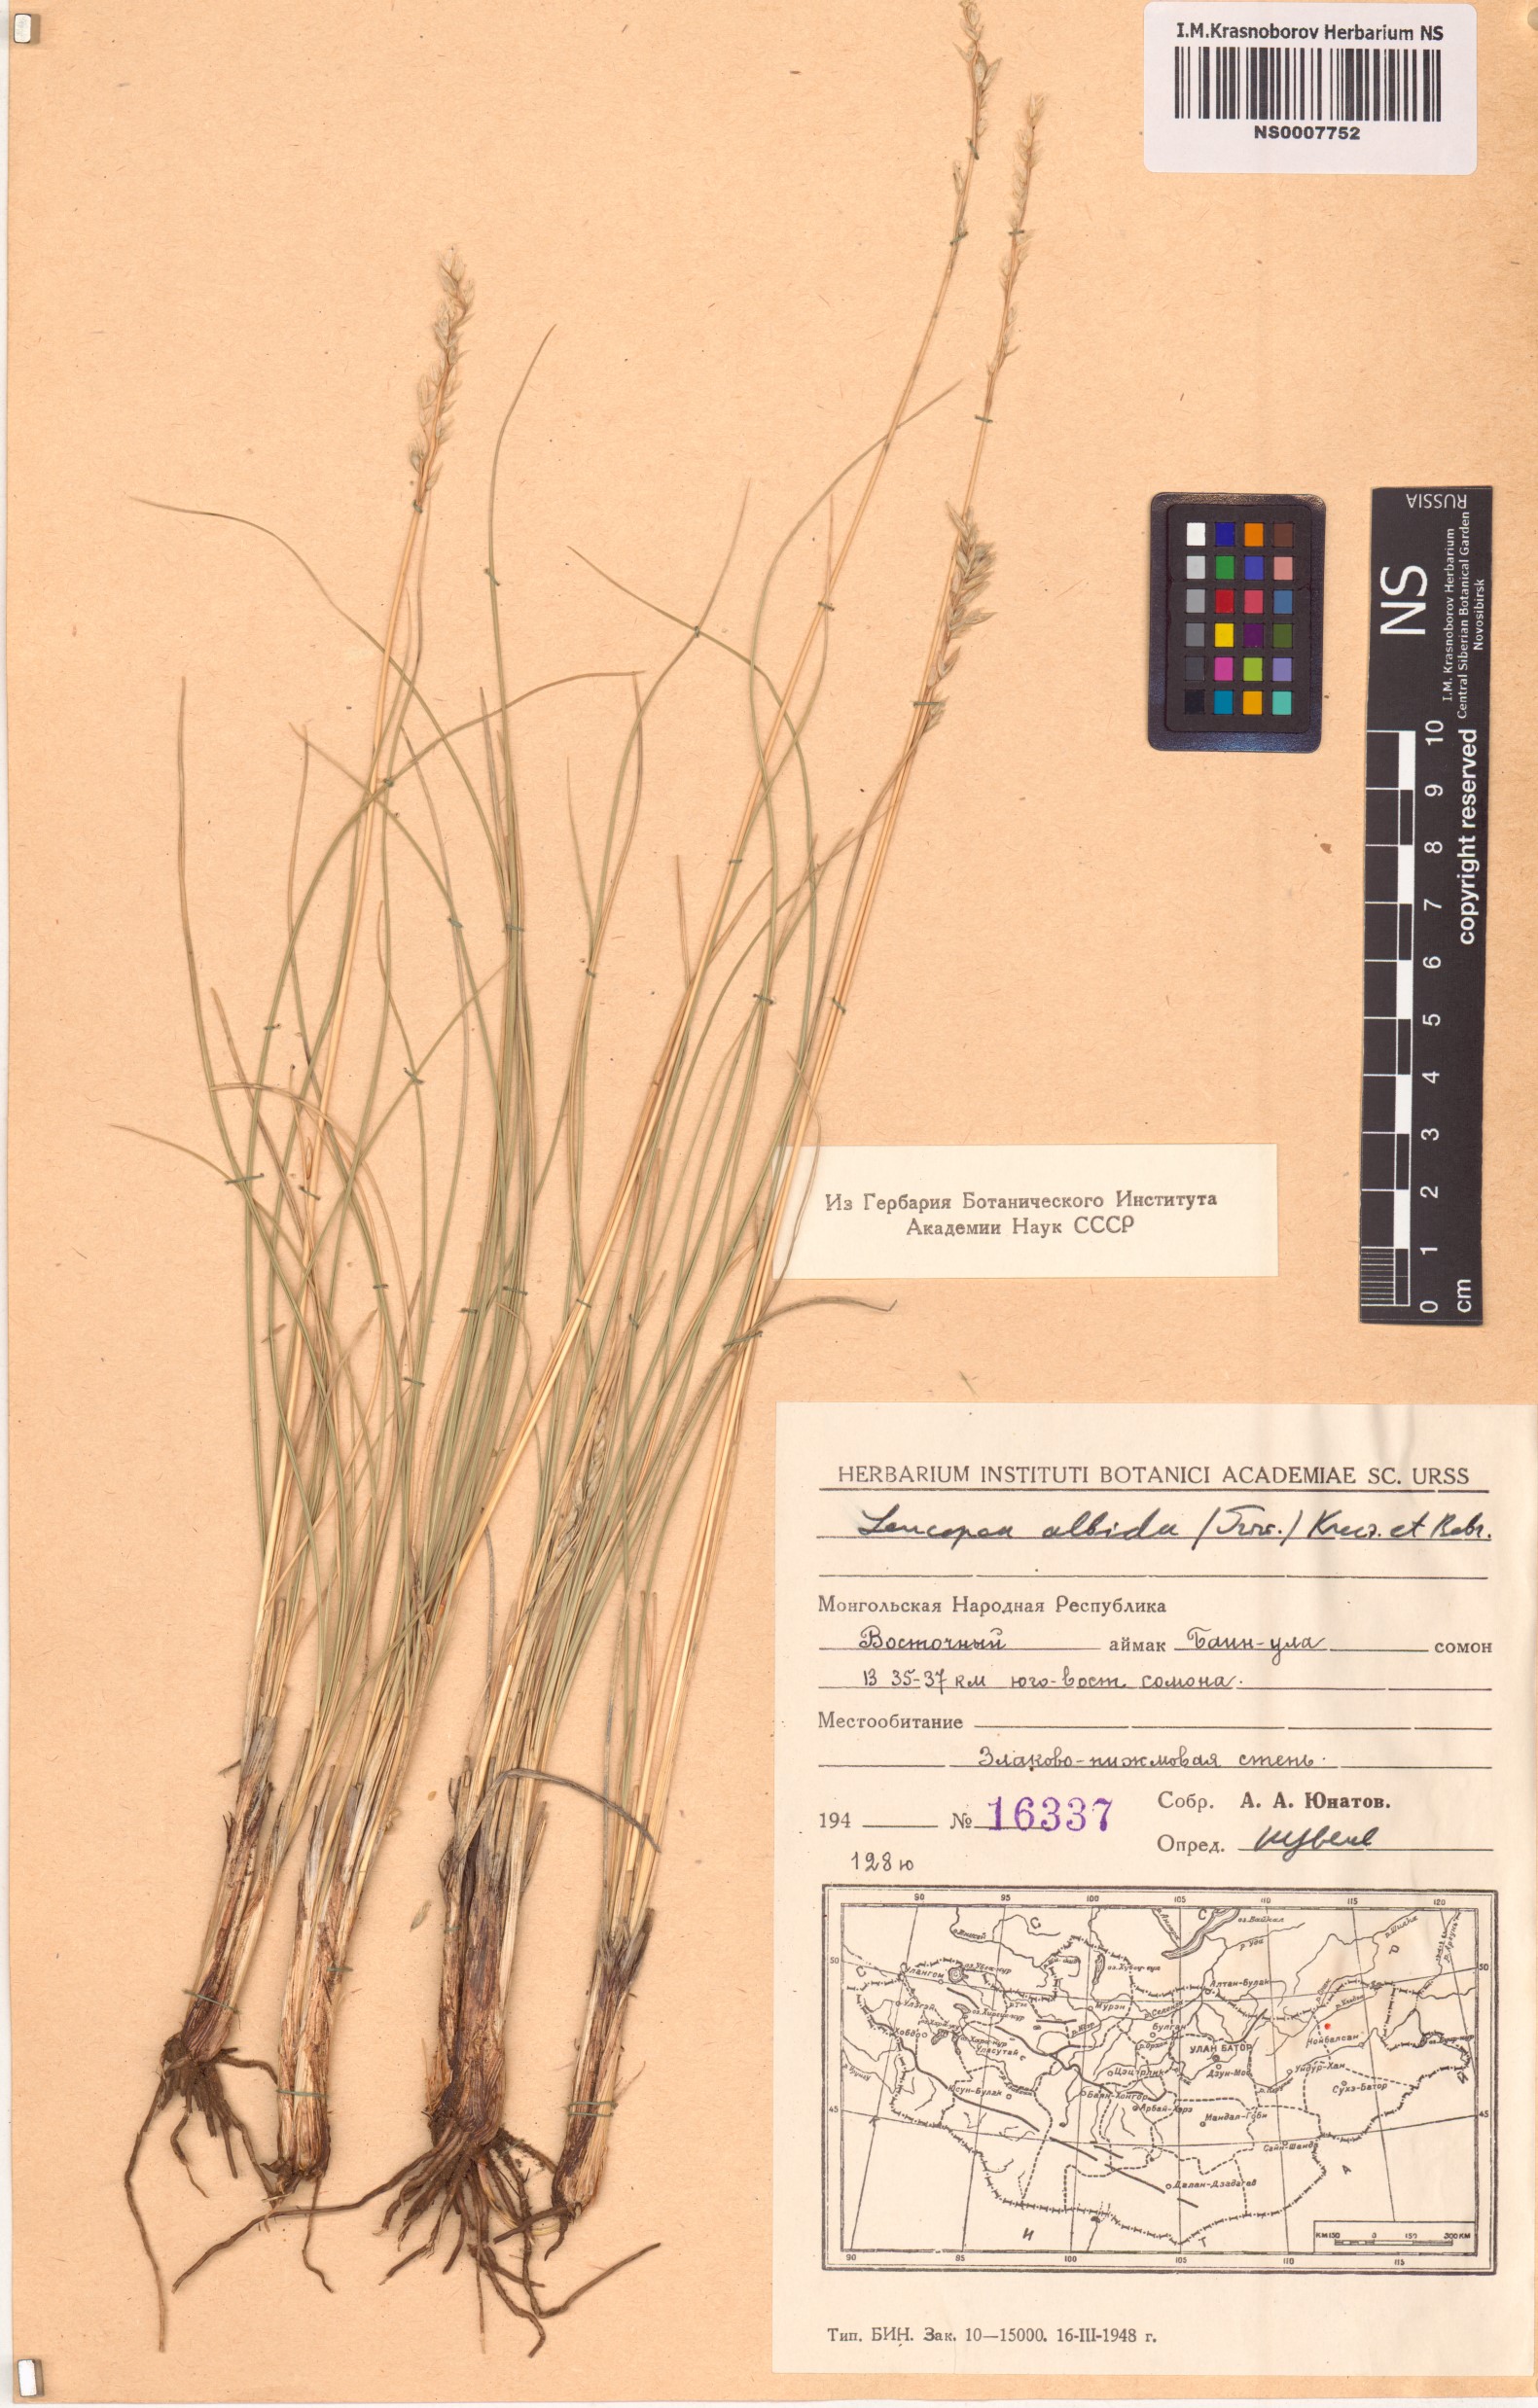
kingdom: Plantae
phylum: Tracheophyta
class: Liliopsida
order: Poales
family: Poaceae
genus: Festuca
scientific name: Festuca sibirica
